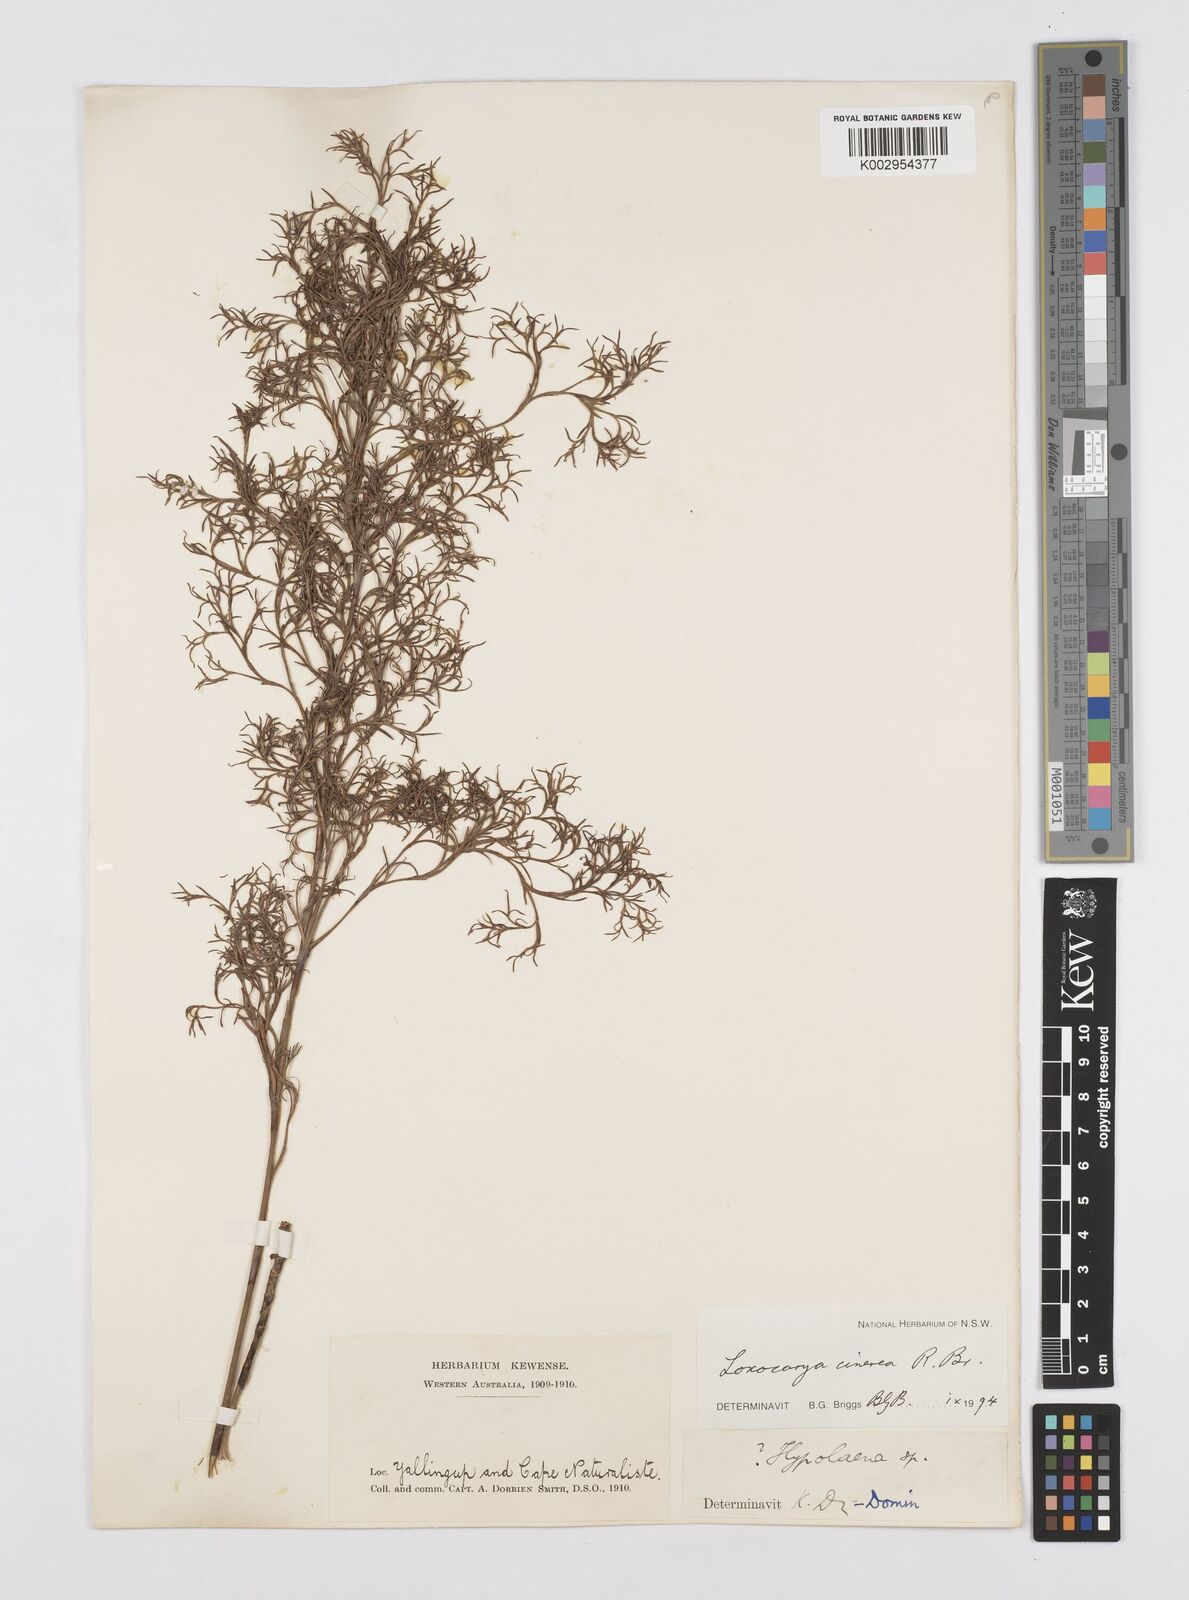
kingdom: Plantae
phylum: Tracheophyta
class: Liliopsida
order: Poales
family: Restionaceae
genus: Loxocarya
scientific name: Loxocarya cinerea
